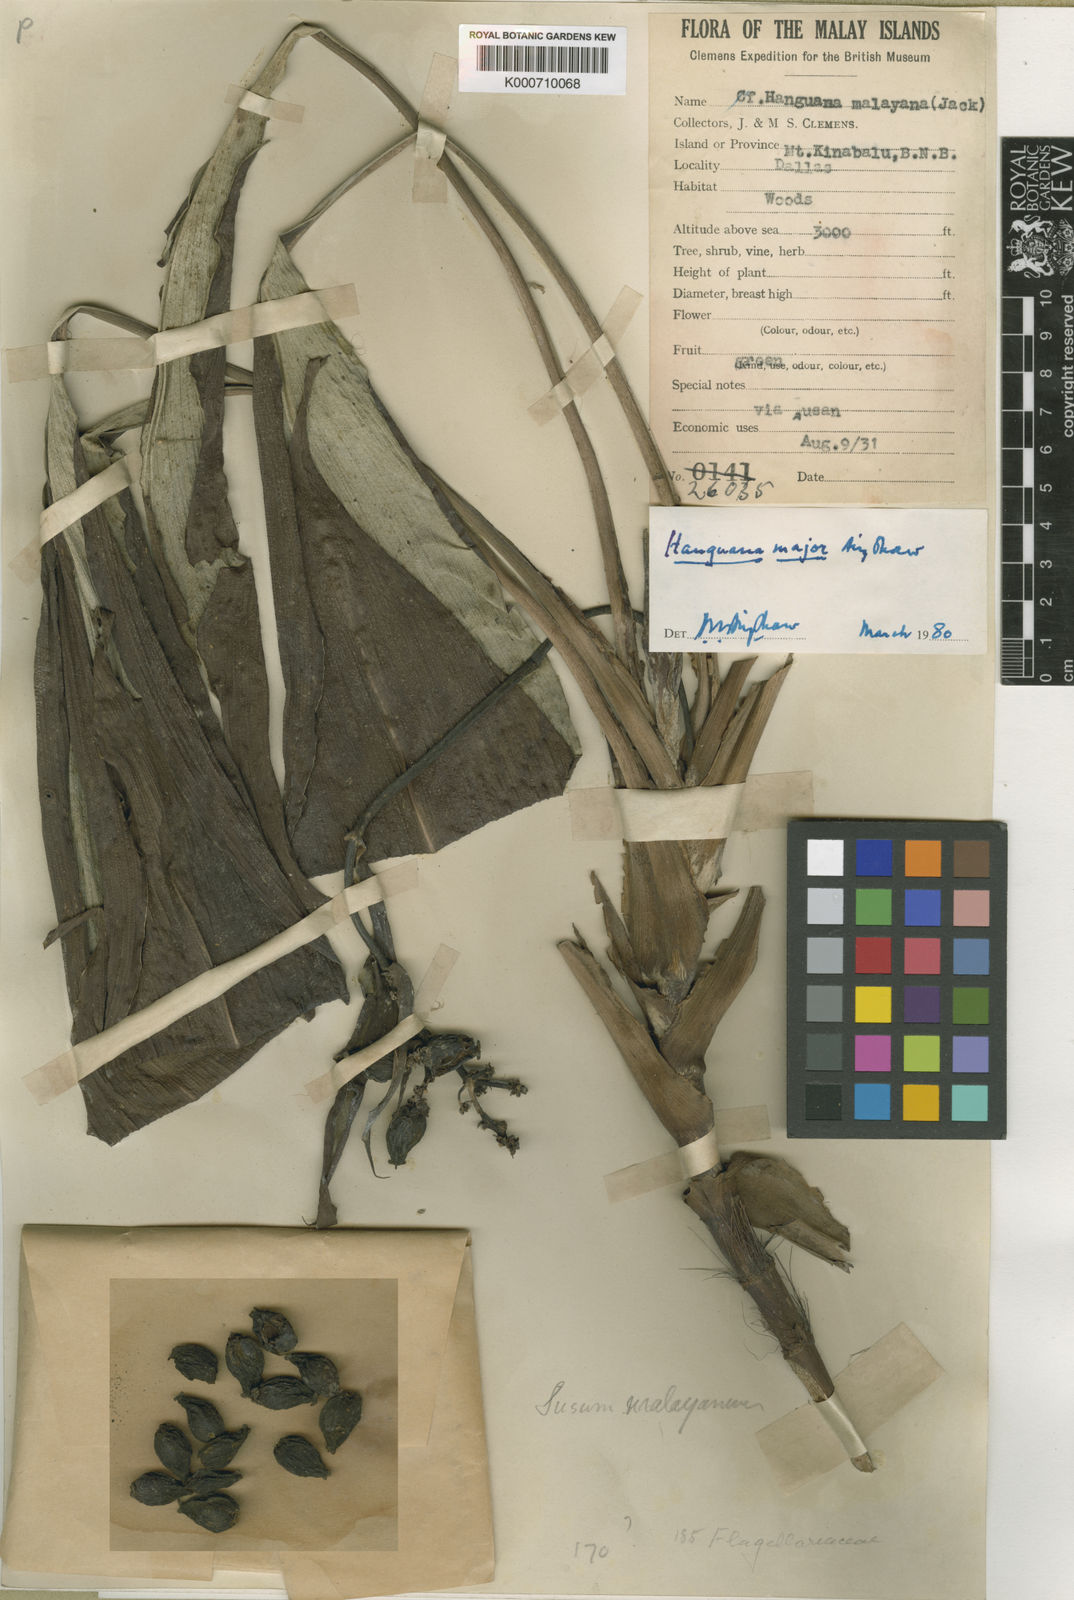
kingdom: Plantae
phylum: Tracheophyta
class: Liliopsida
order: Commelinales
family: Hanguanaceae
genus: Hanguana
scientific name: Hanguana major
